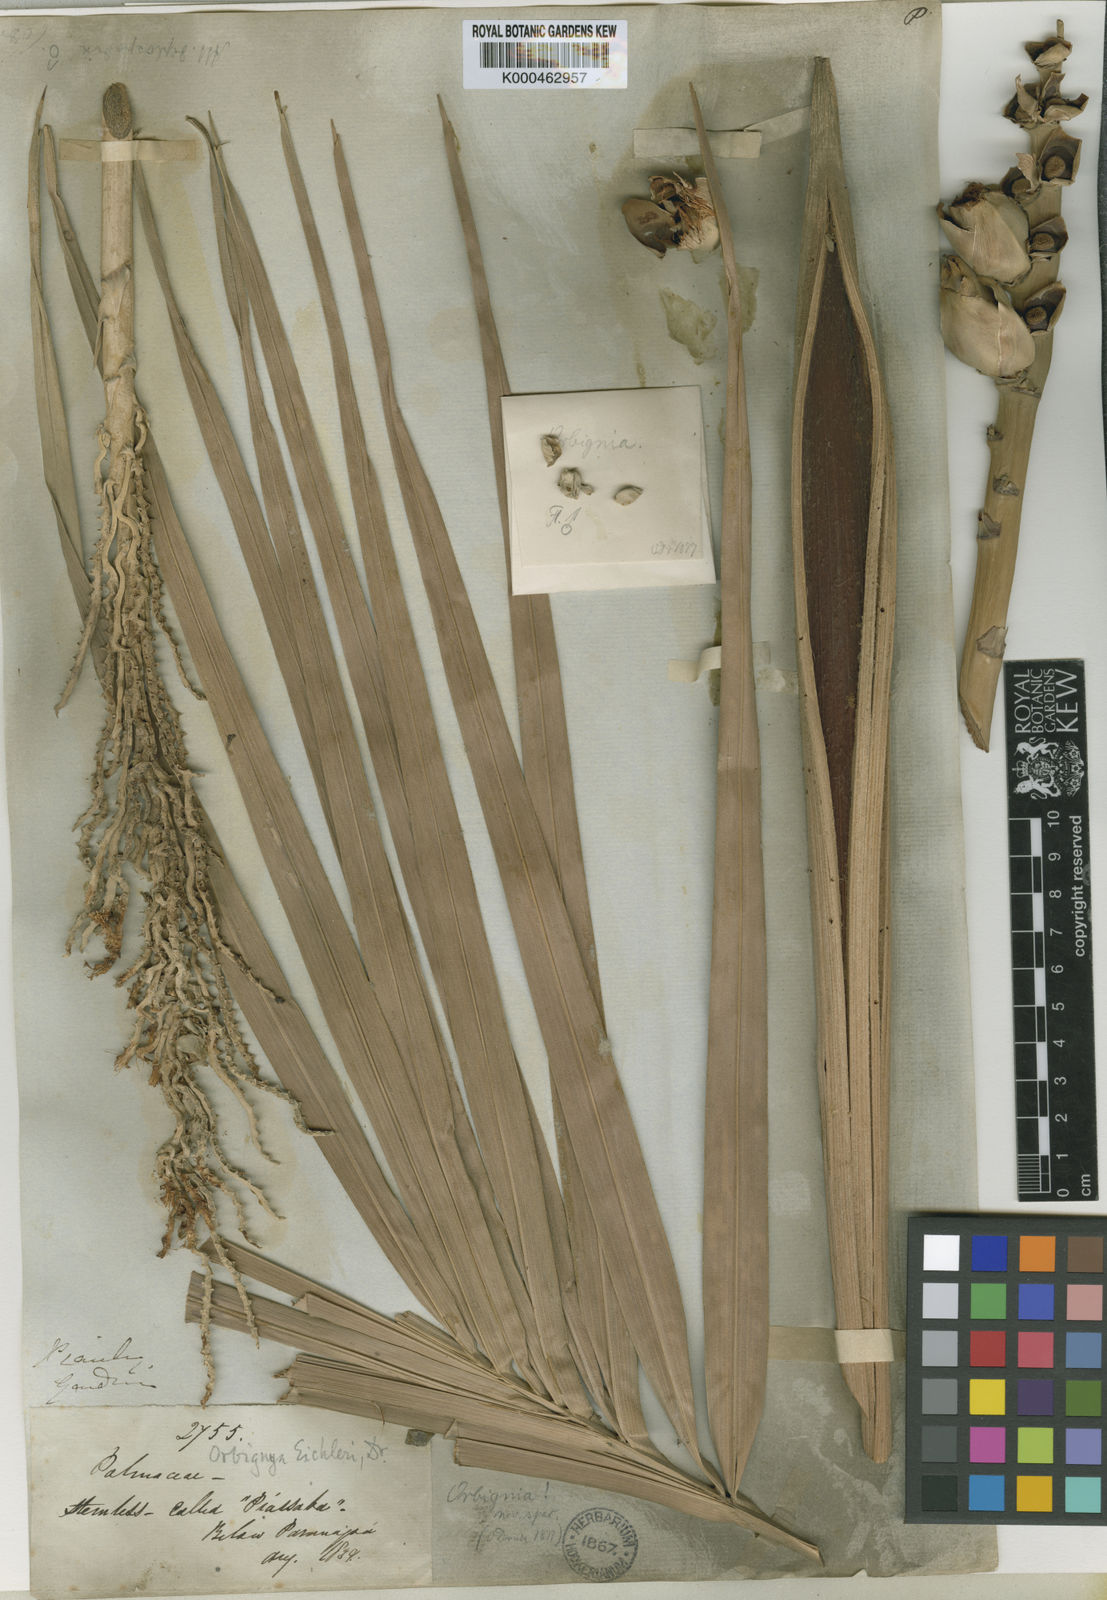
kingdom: Plantae
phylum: Tracheophyta
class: Liliopsida
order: Arecales
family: Arecaceae
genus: Attalea
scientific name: Attalea eichleri
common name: Large-fruit yagua palm
